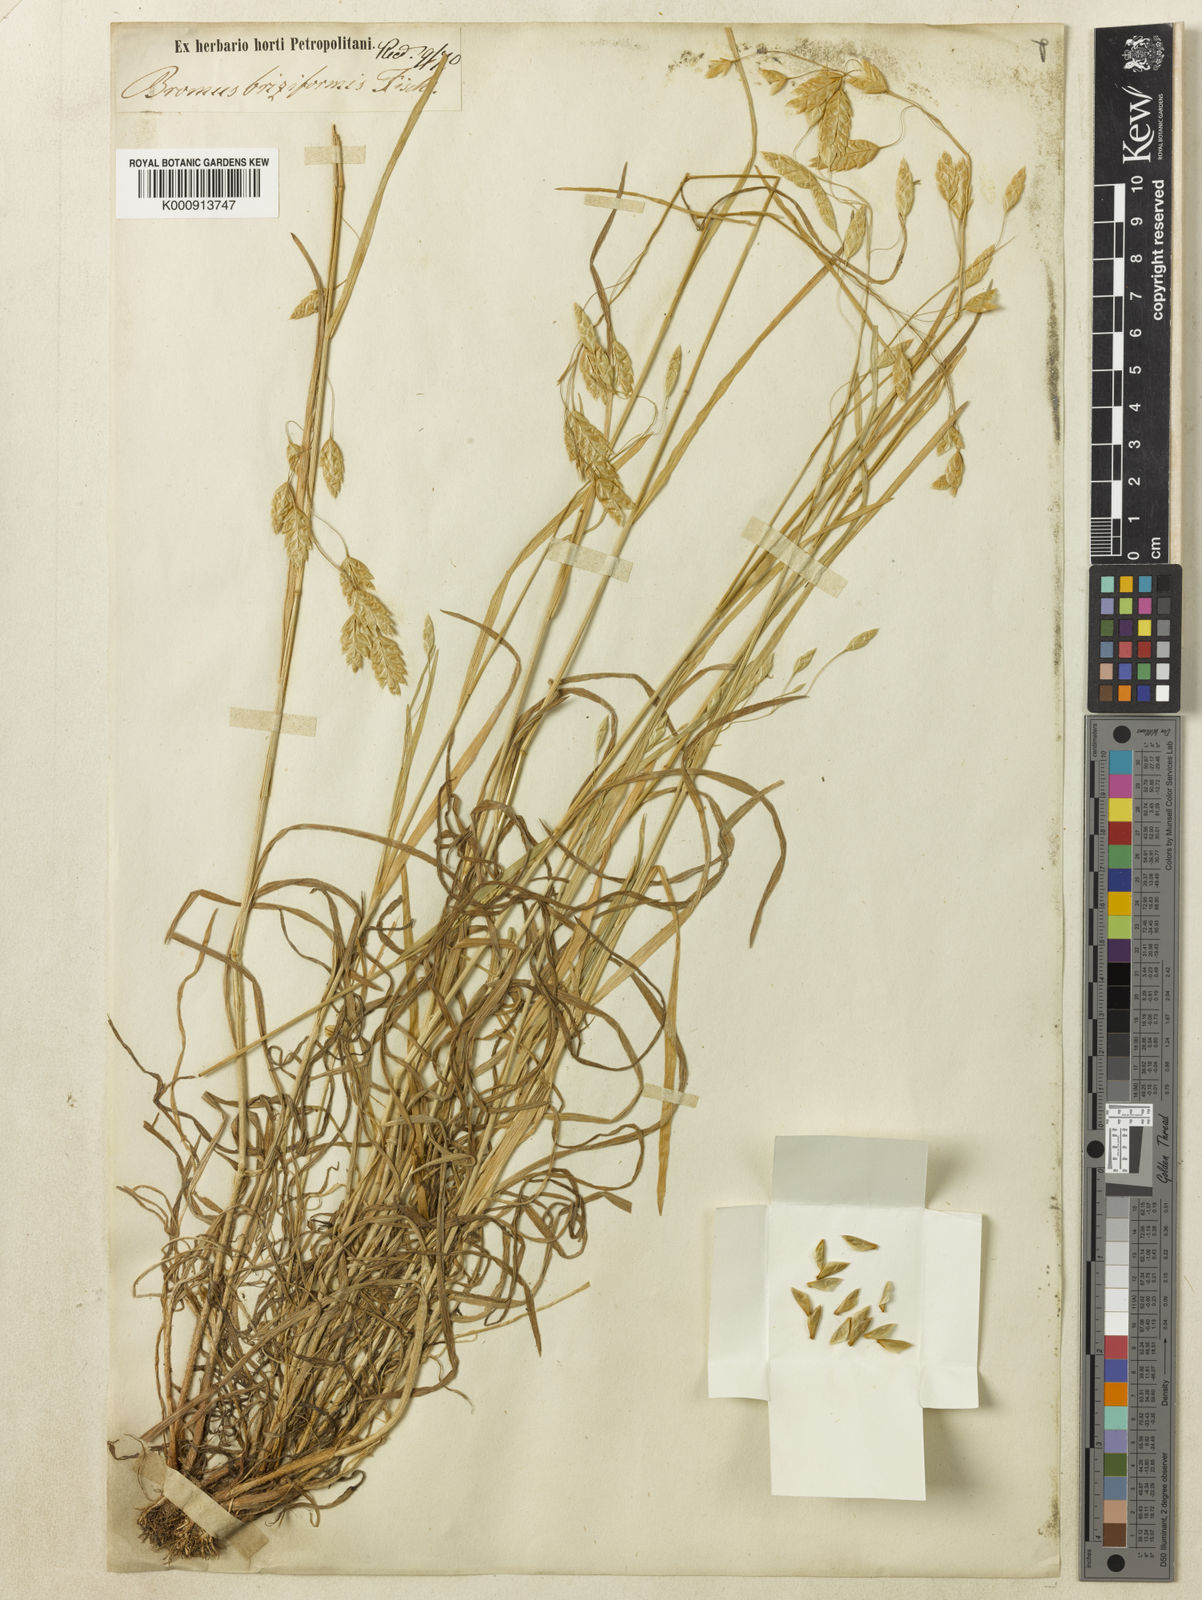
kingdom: Plantae
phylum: Tracheophyta
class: Liliopsida
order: Poales
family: Poaceae
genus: Bromus
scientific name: Bromus briziformis
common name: Rattlesnake brome
